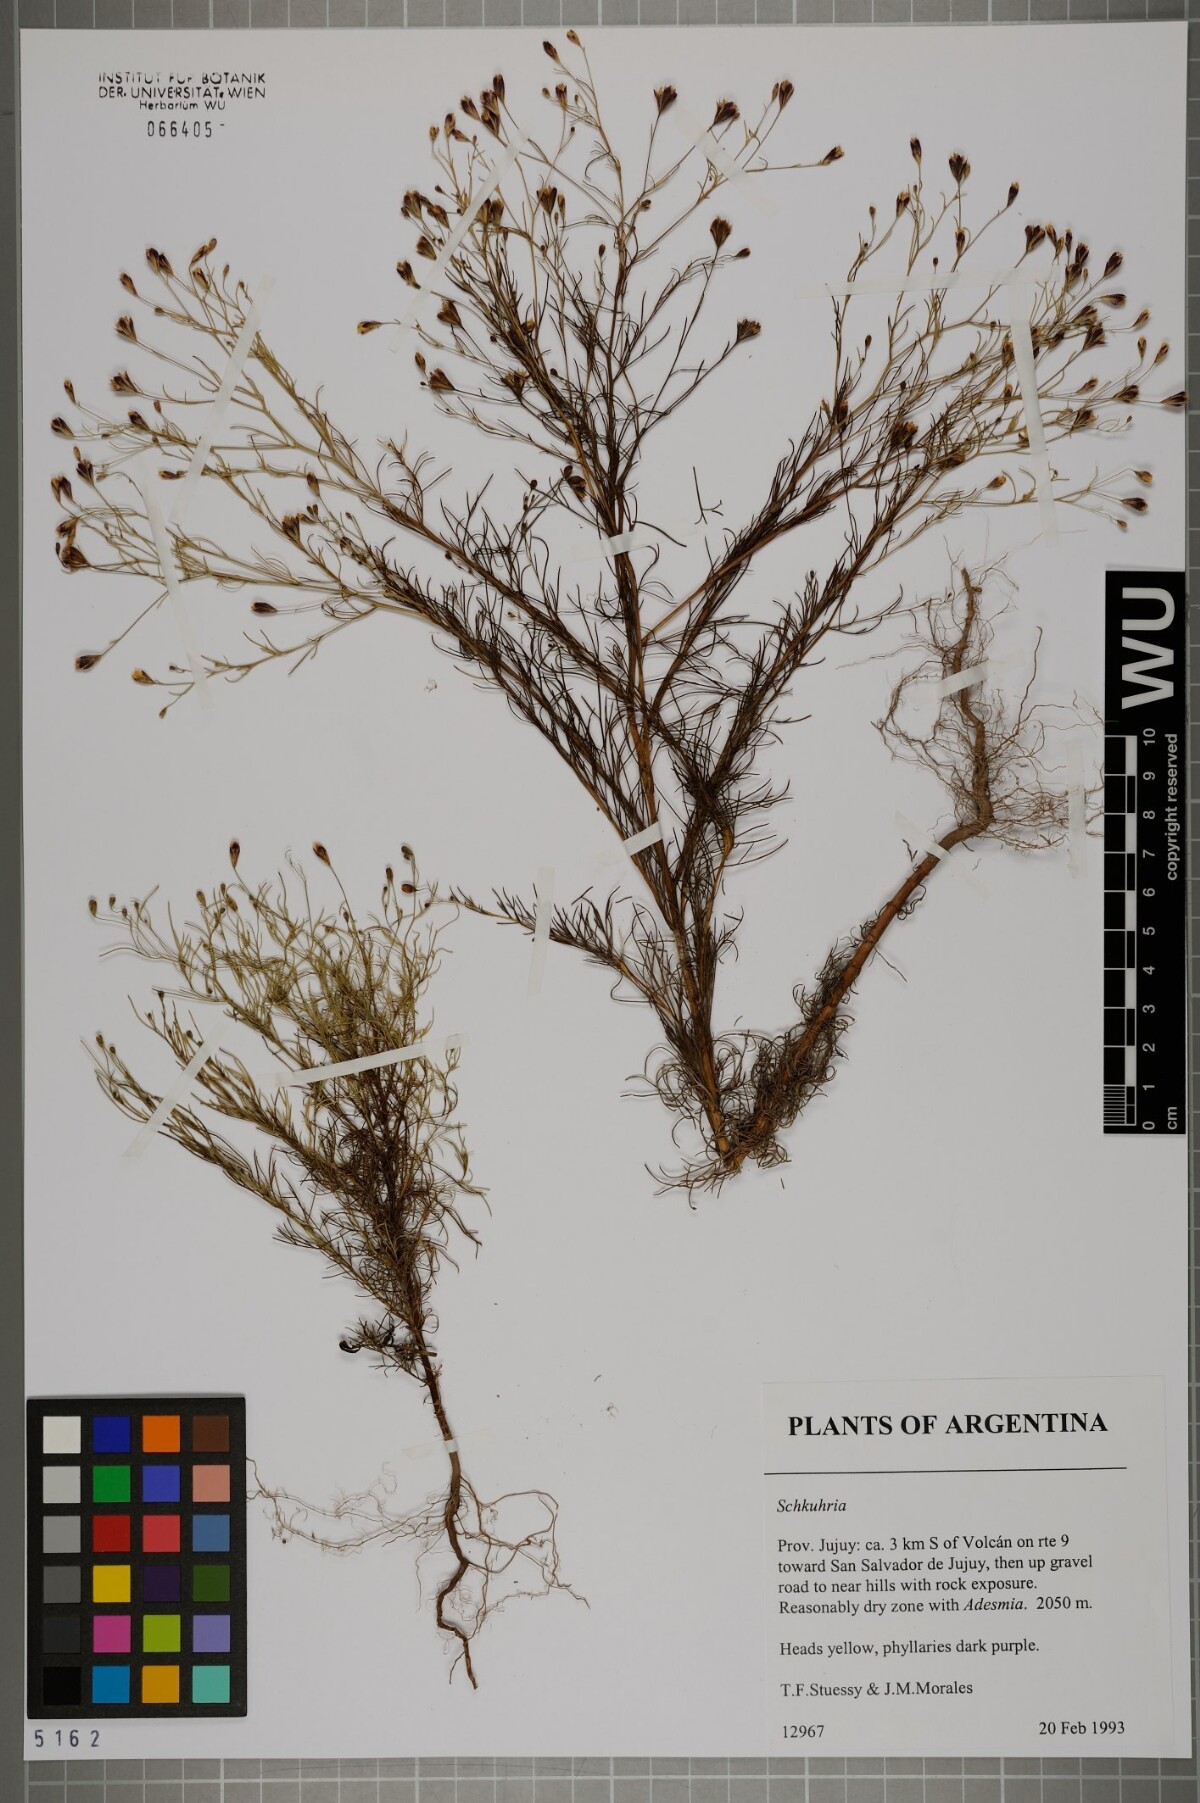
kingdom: Plantae
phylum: Tracheophyta
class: Magnoliopsida
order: Asterales
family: Asteraceae
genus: Schkuhria
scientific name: Schkuhria
